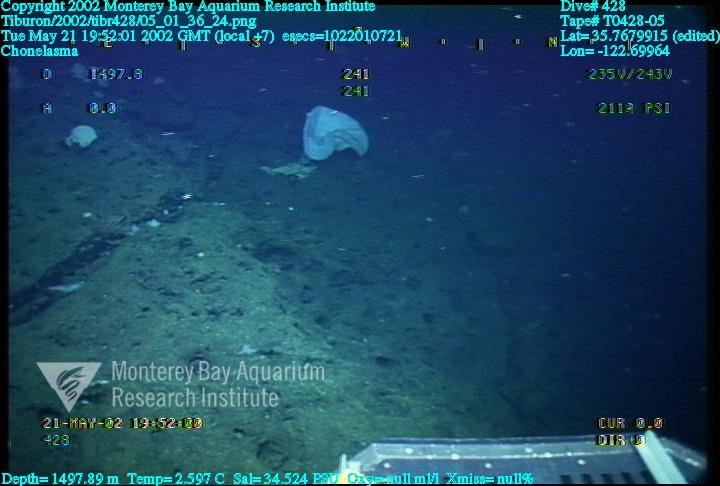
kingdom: Animalia
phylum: Porifera
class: Hexactinellida
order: Sceptrulophora
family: Euretidae
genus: Chonelasma
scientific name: Chonelasma
